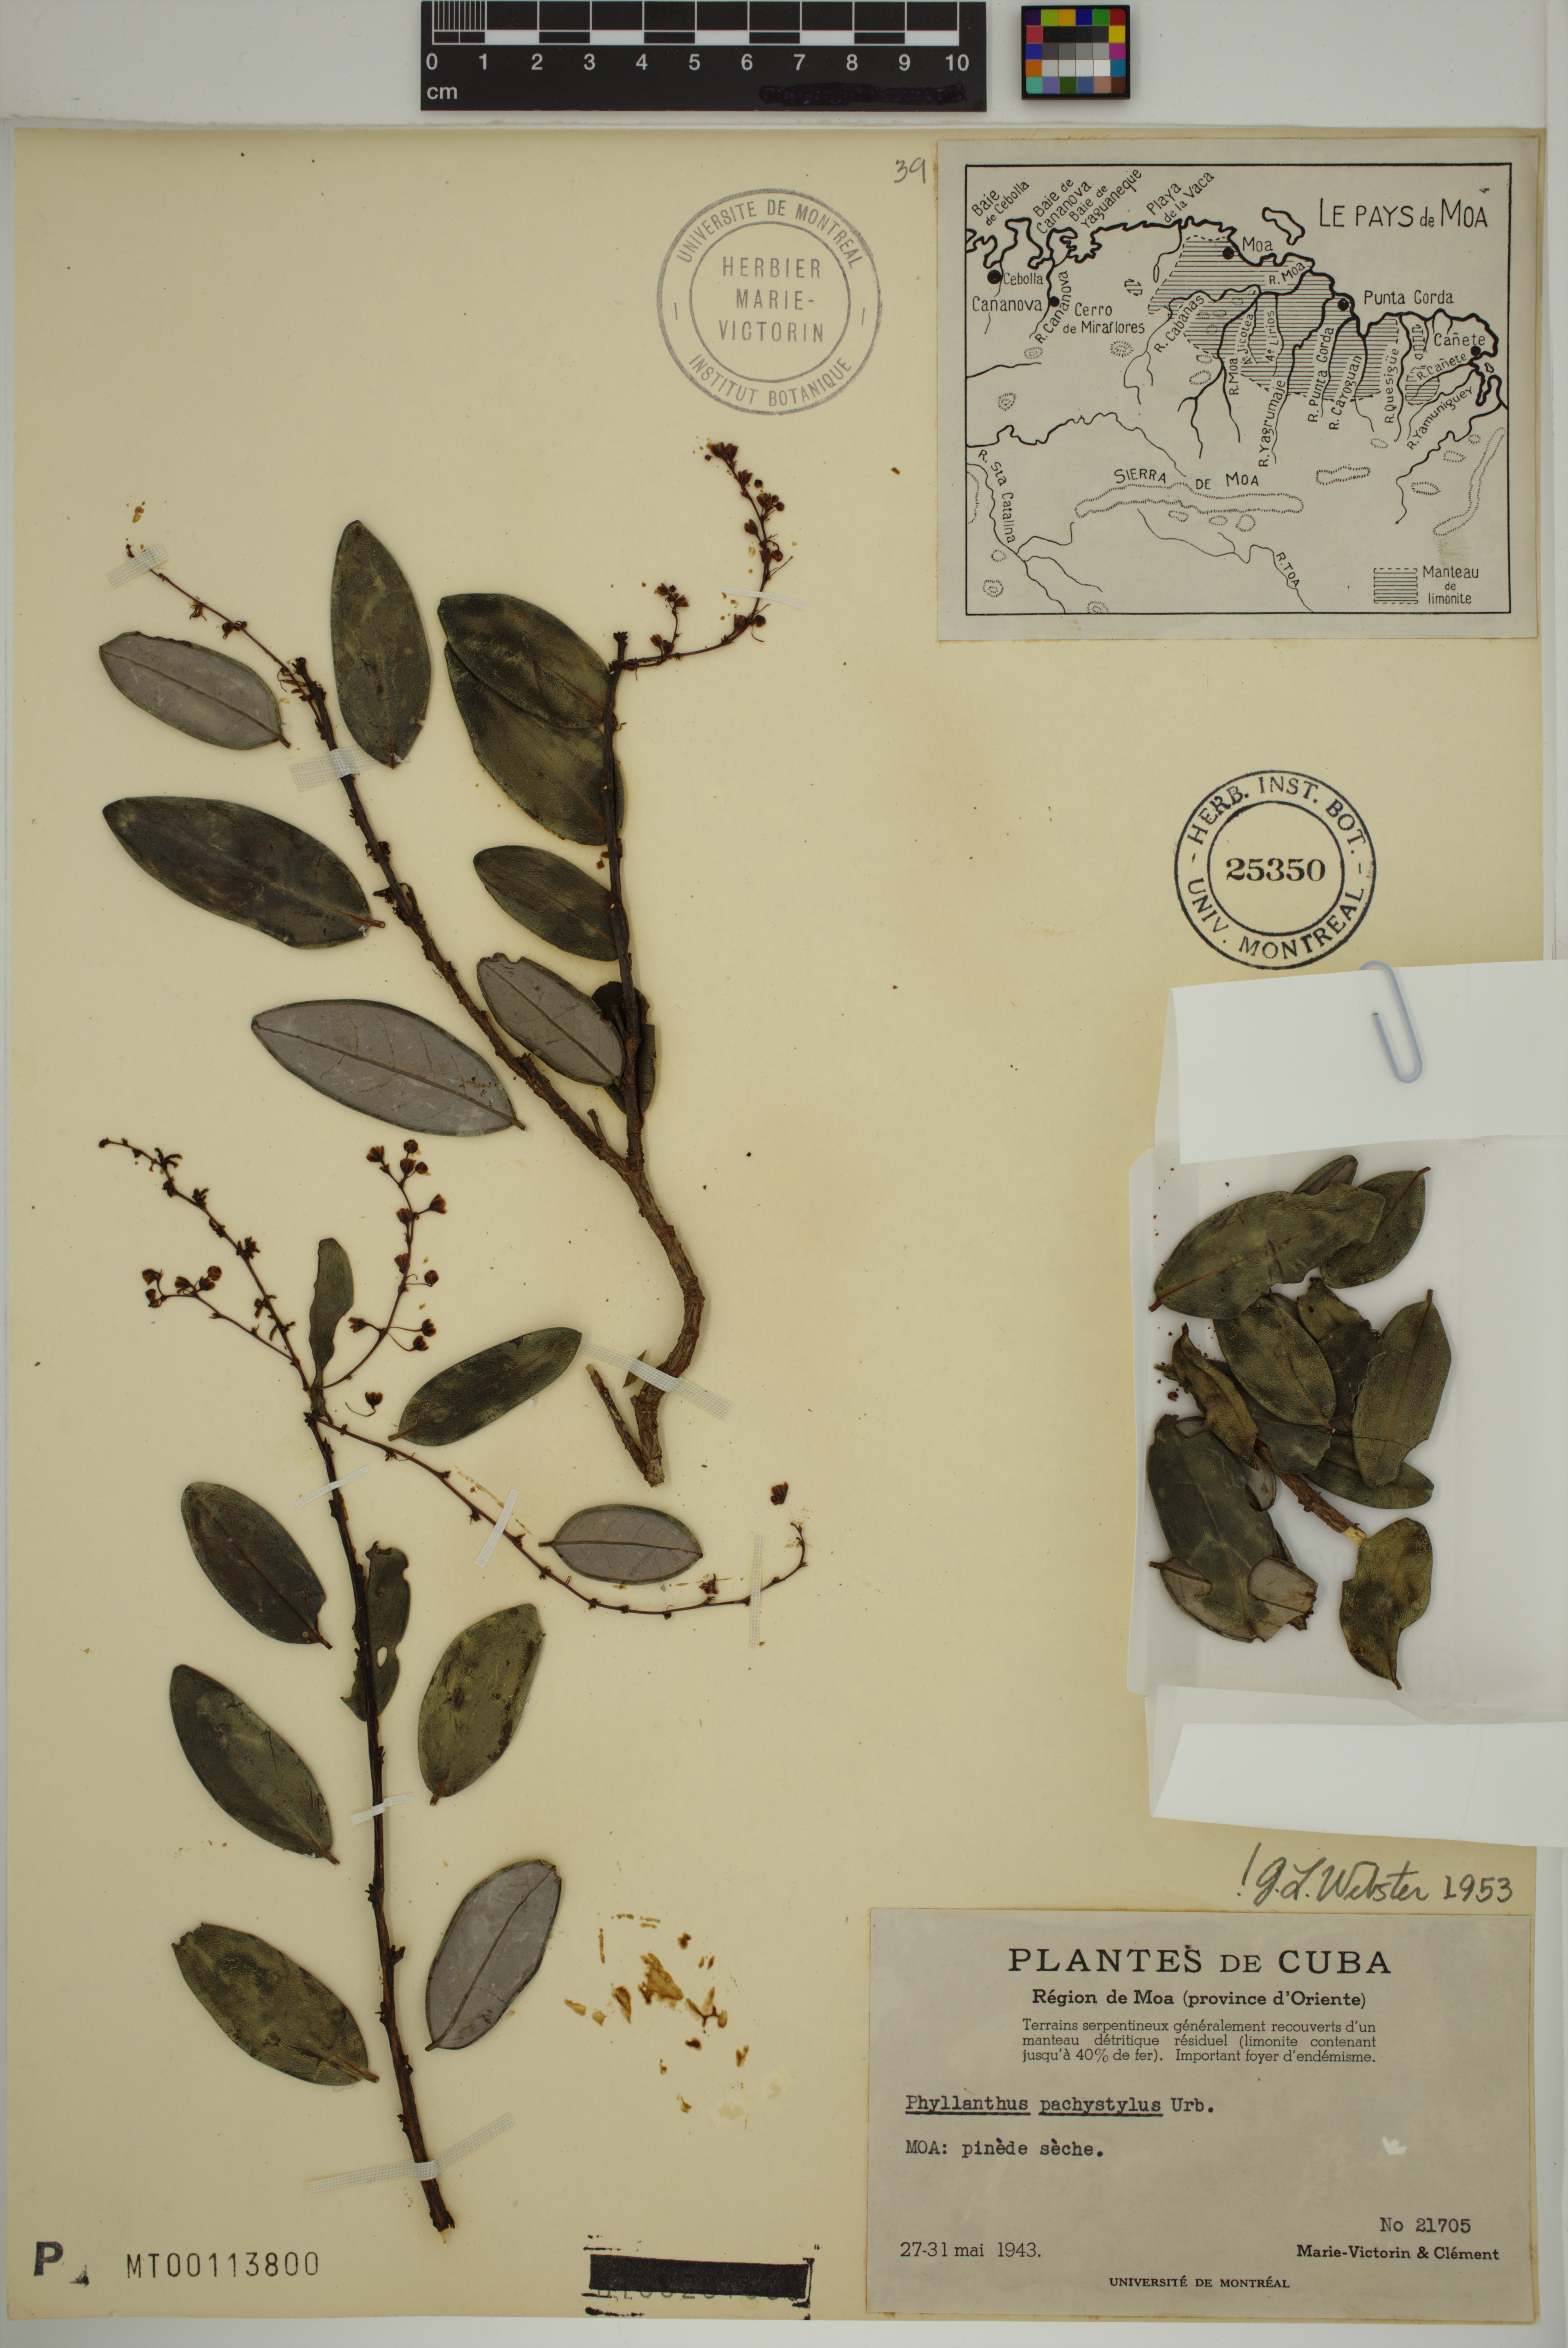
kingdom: Plantae
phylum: Tracheophyta
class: Magnoliopsida
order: Malpighiales
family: Phyllanthaceae
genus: Phyllanthus
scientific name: Phyllanthus pachystylus
